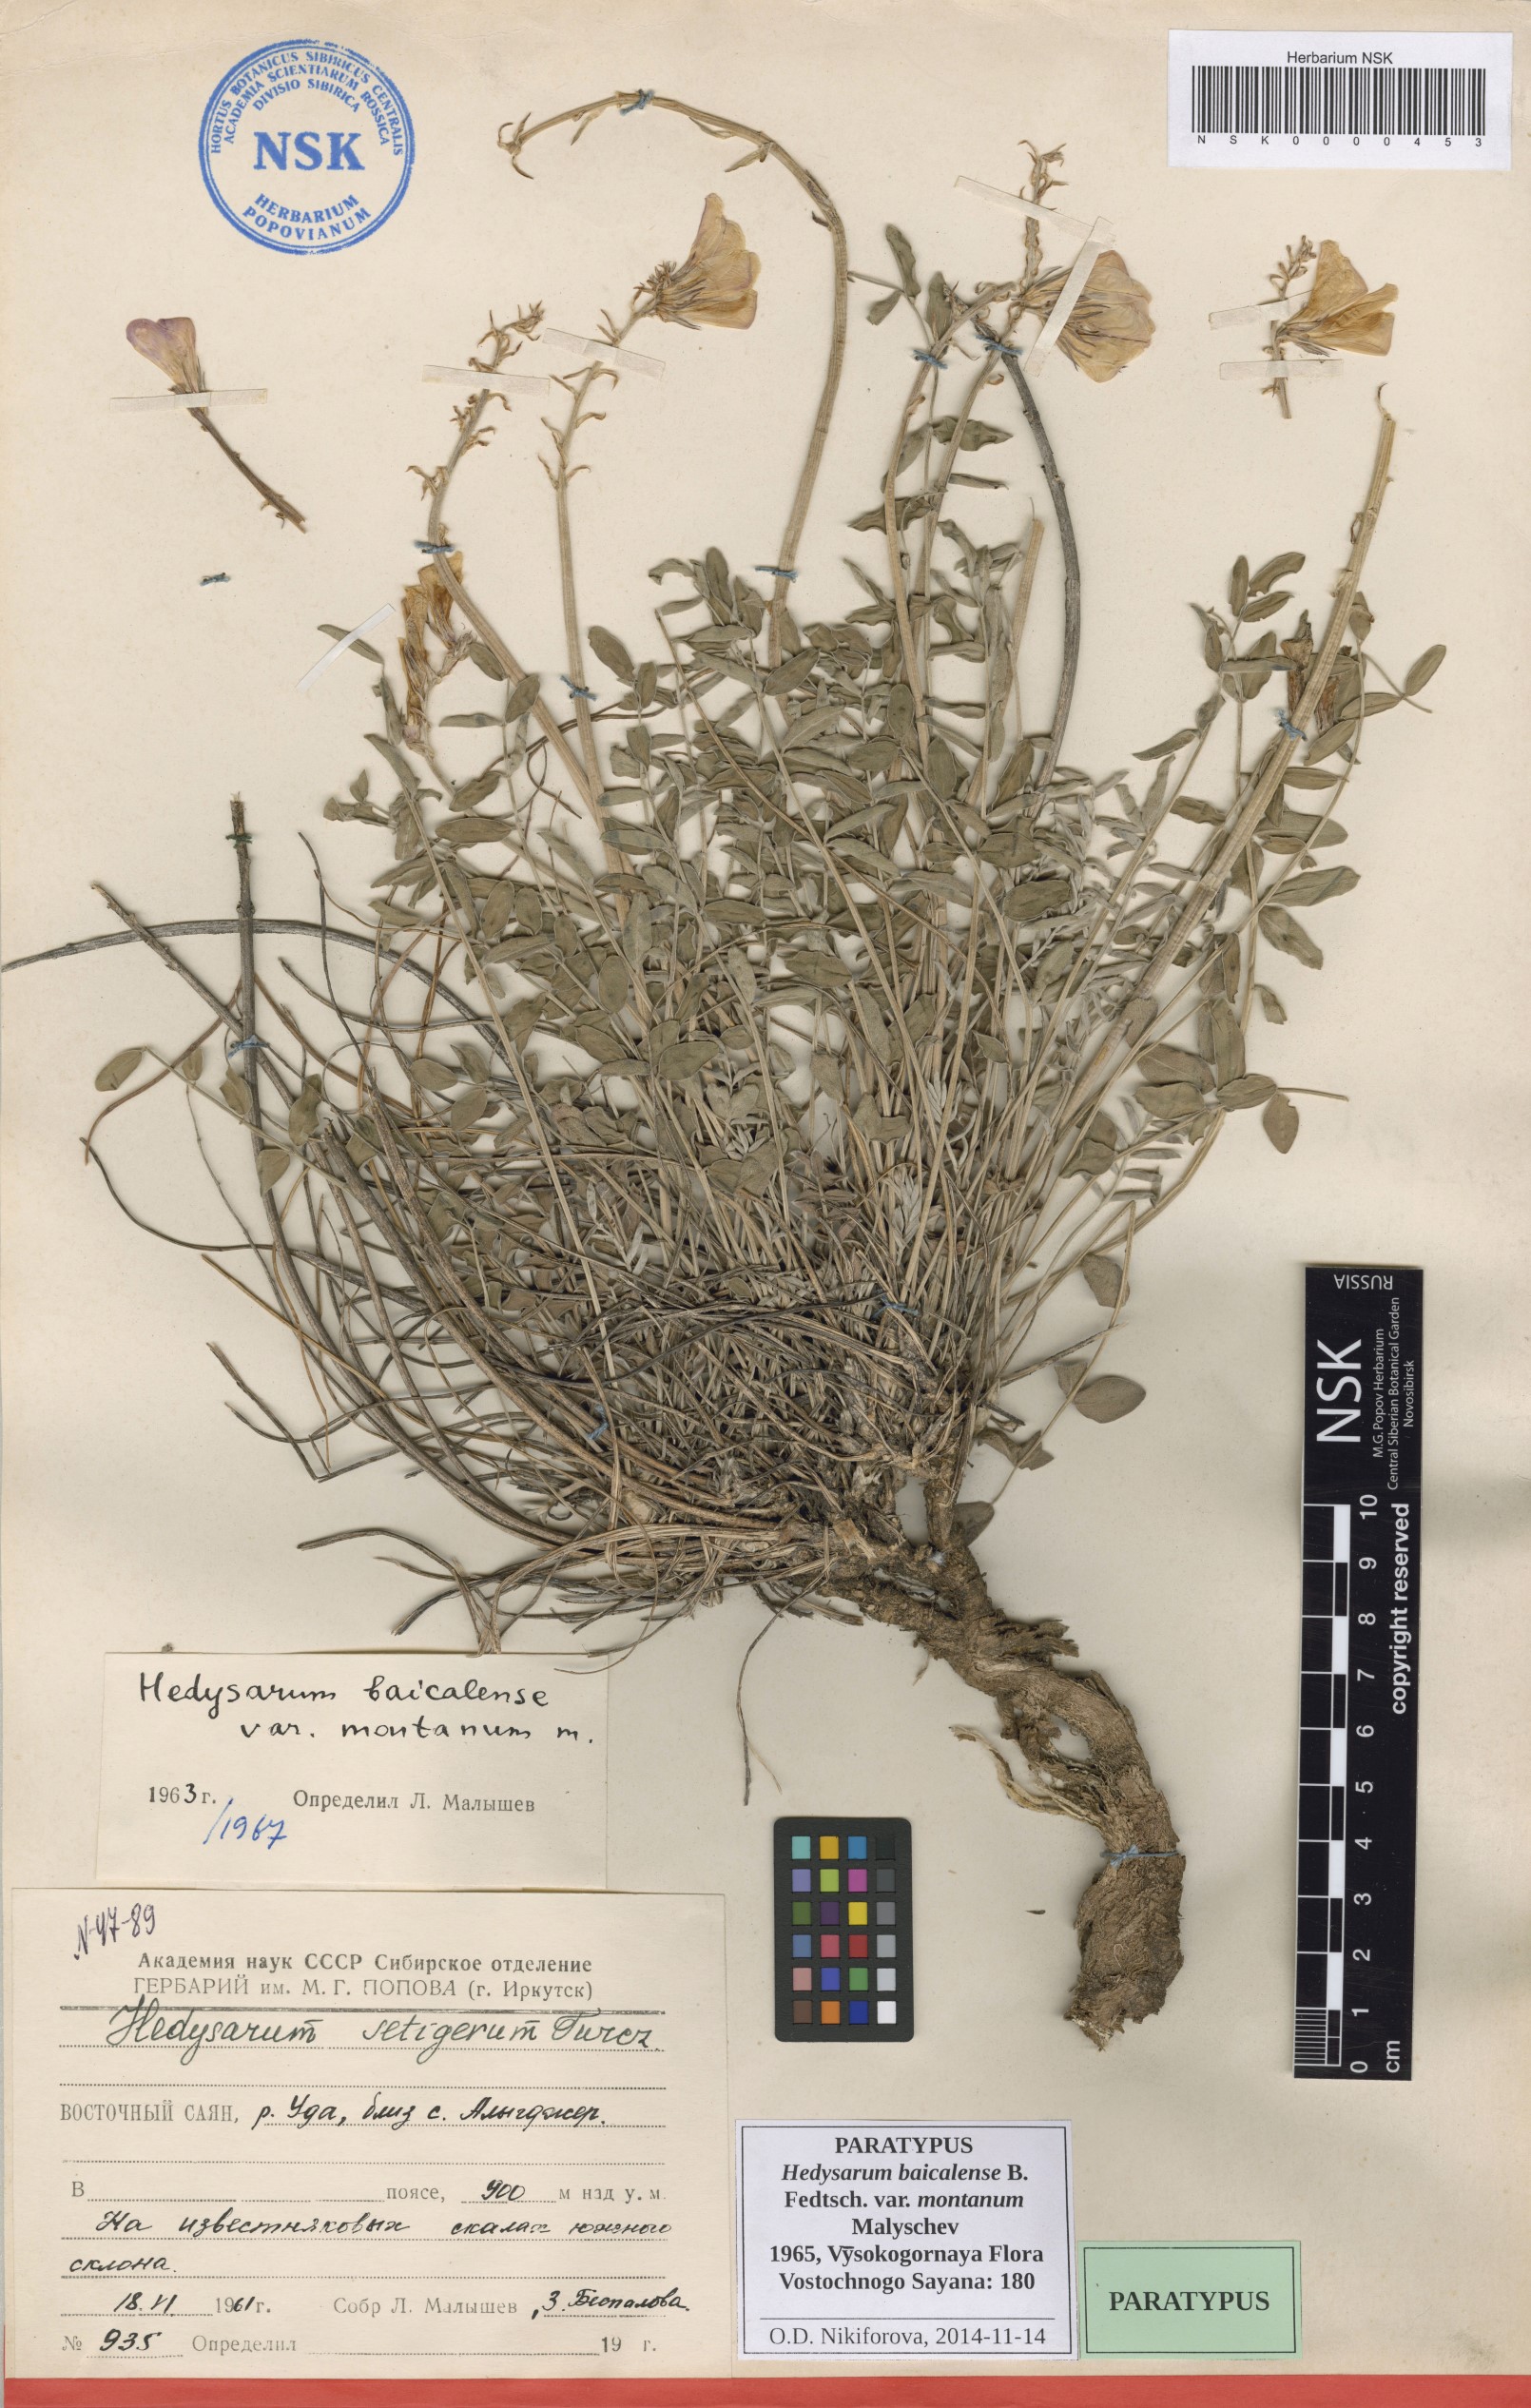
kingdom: Plantae
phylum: Tracheophyta
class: Magnoliopsida
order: Fabales
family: Fabaceae
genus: Hedysarum
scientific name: Hedysarum baicalense
